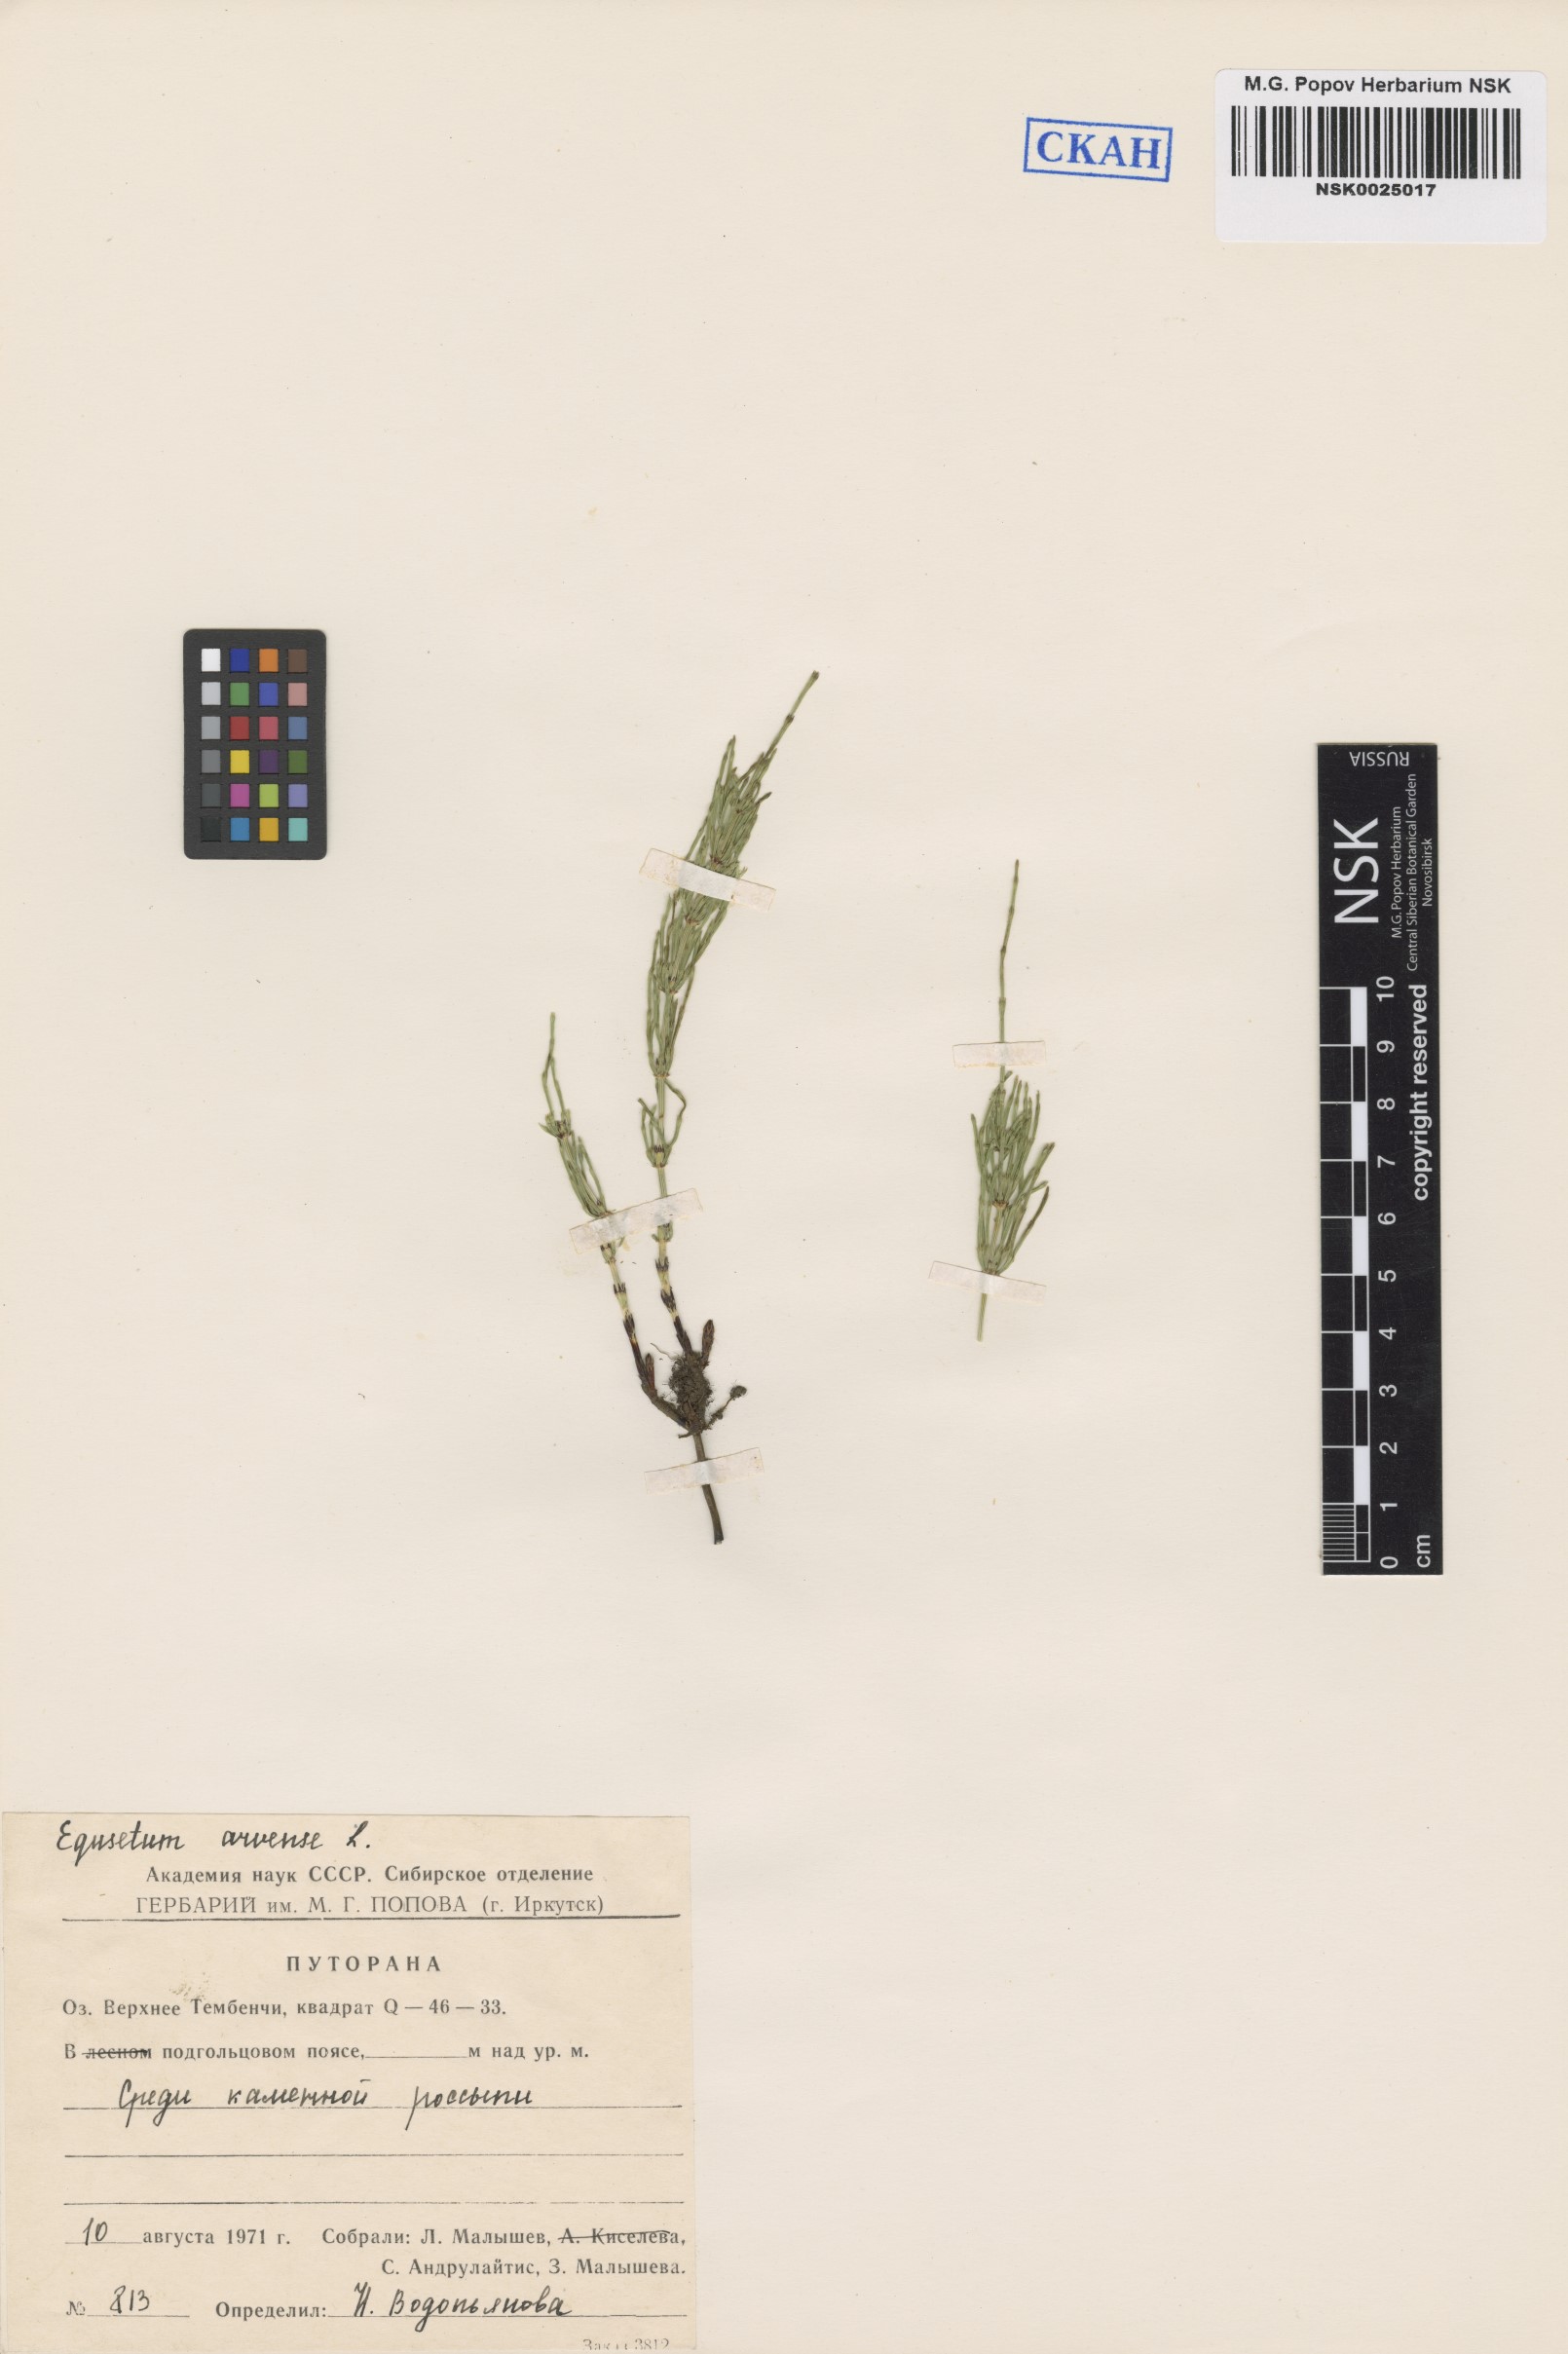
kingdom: Plantae
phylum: Tracheophyta
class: Polypodiopsida
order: Equisetales
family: Equisetaceae
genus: Equisetum
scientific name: Equisetum arvense
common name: Field horsetail
